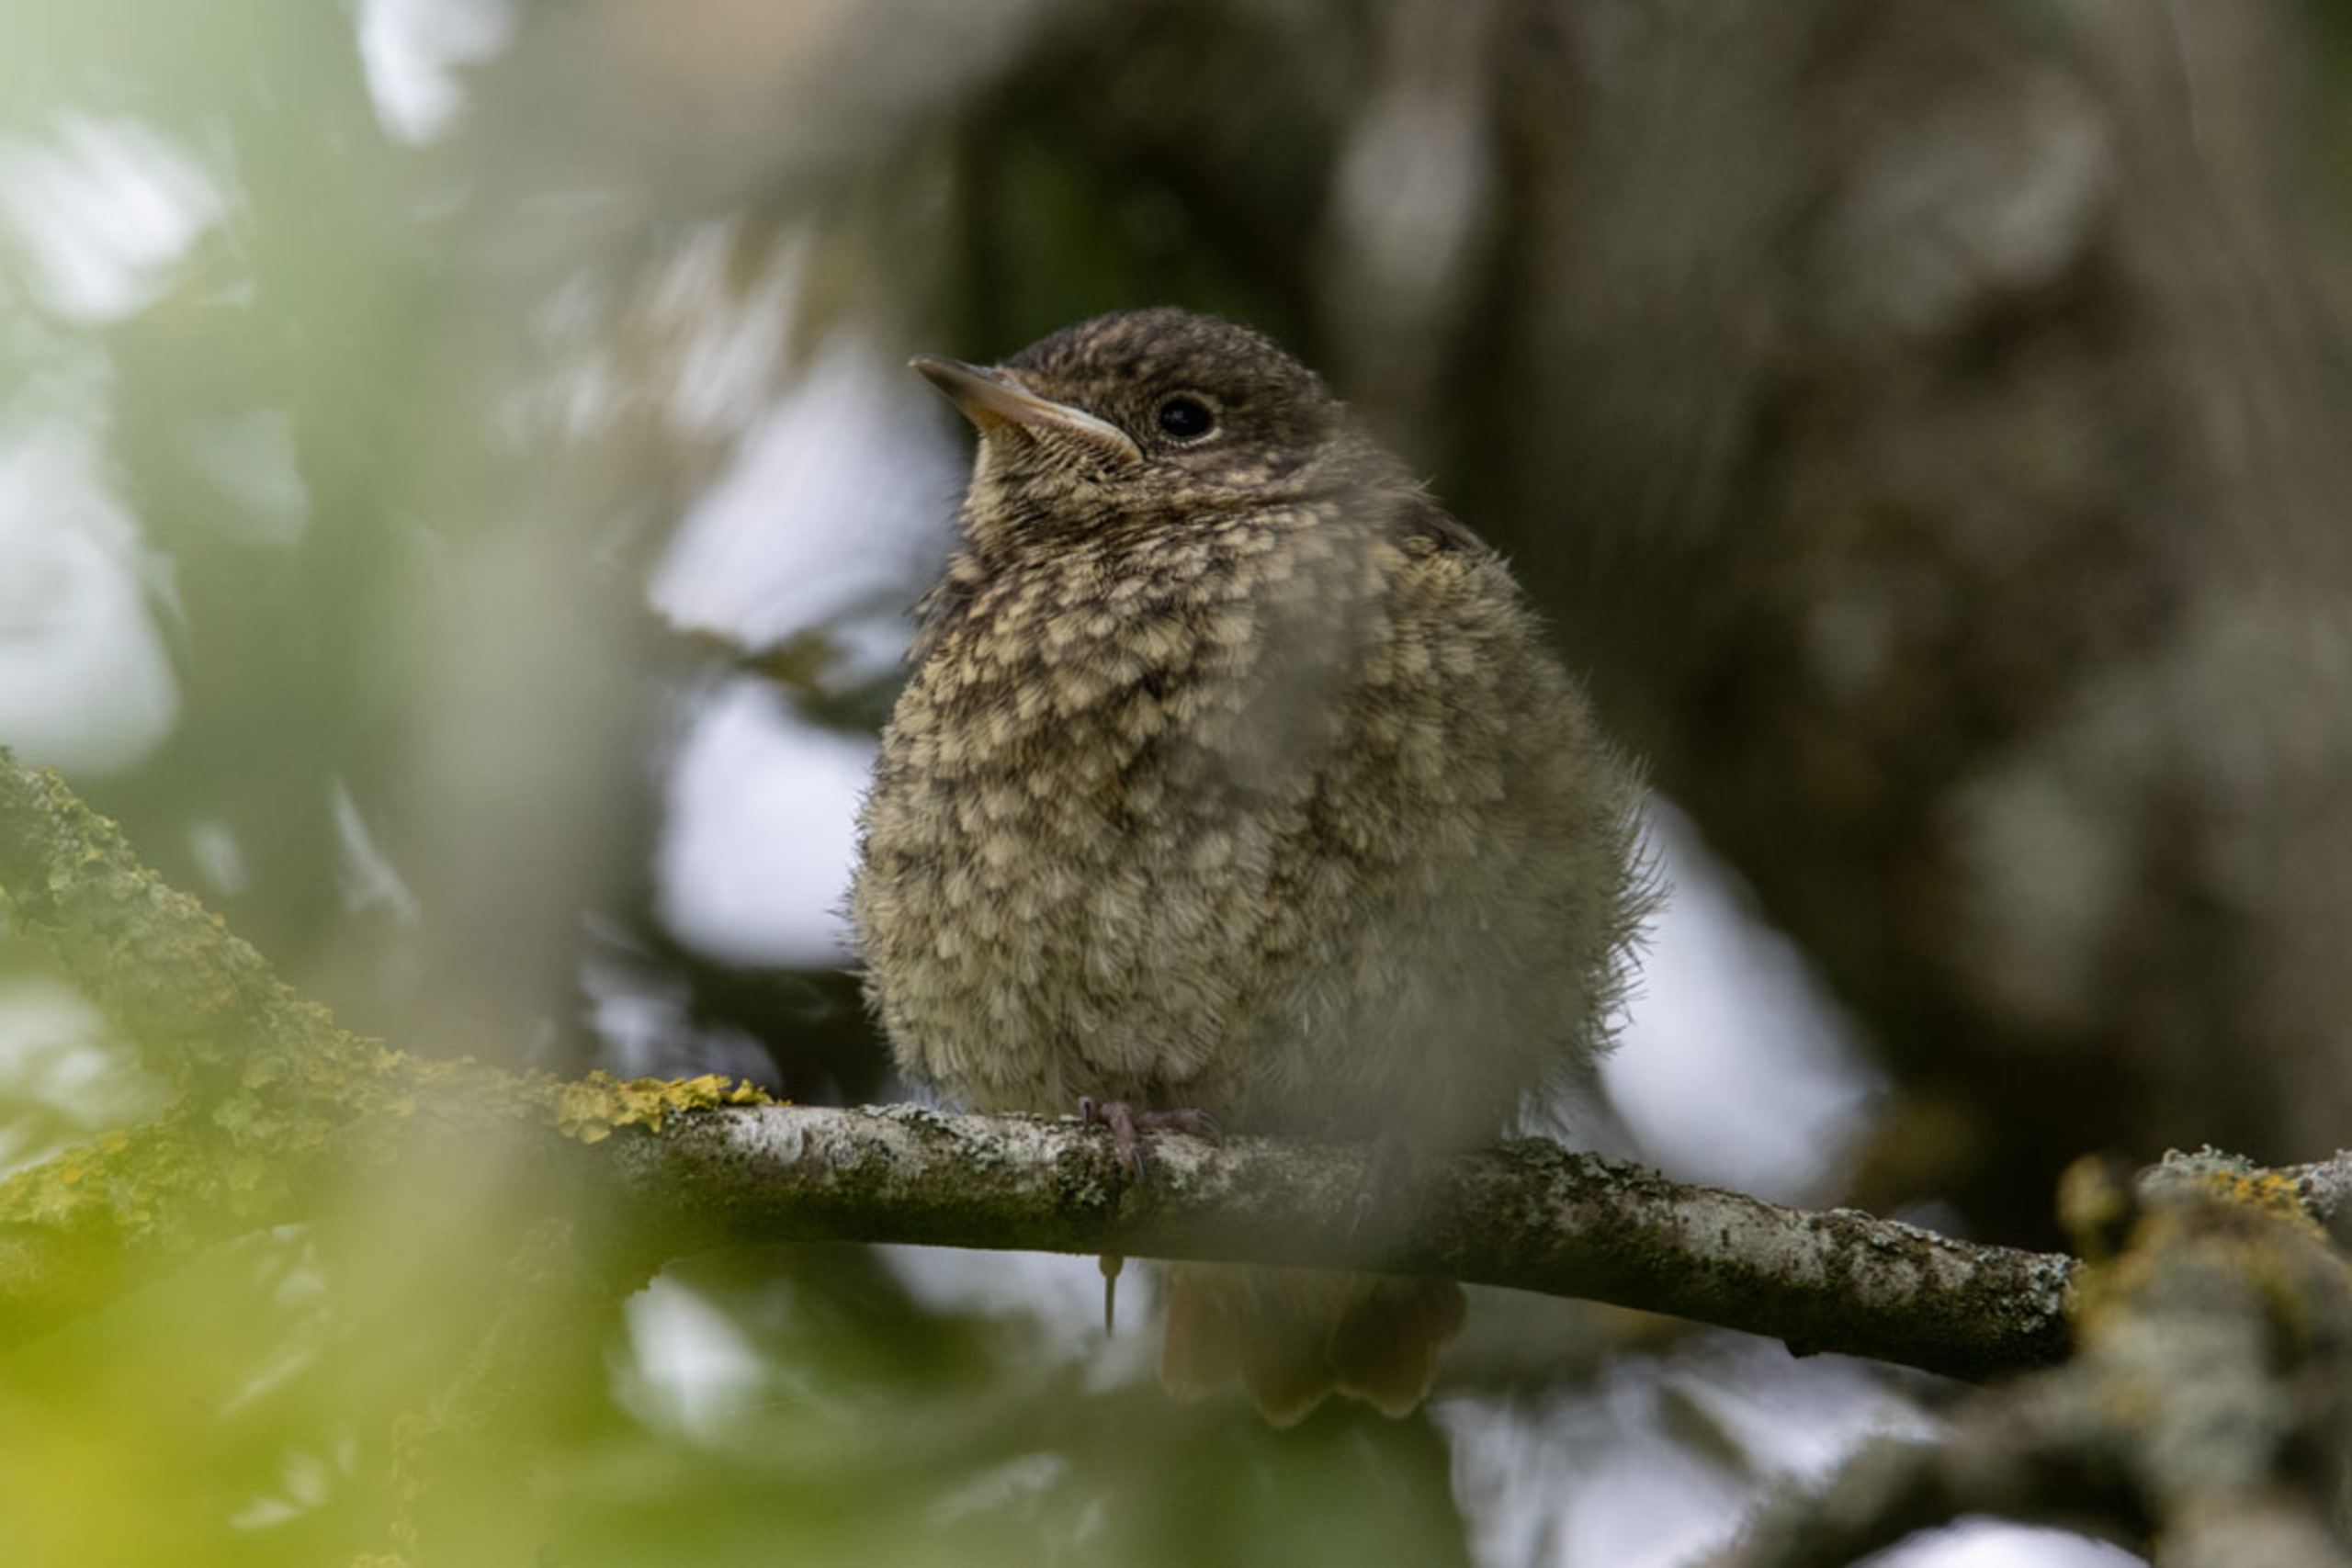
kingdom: Animalia
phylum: Chordata
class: Aves
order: Passeriformes
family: Muscicapidae
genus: Phoenicurus
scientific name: Phoenicurus phoenicurus
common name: Rødstjert
